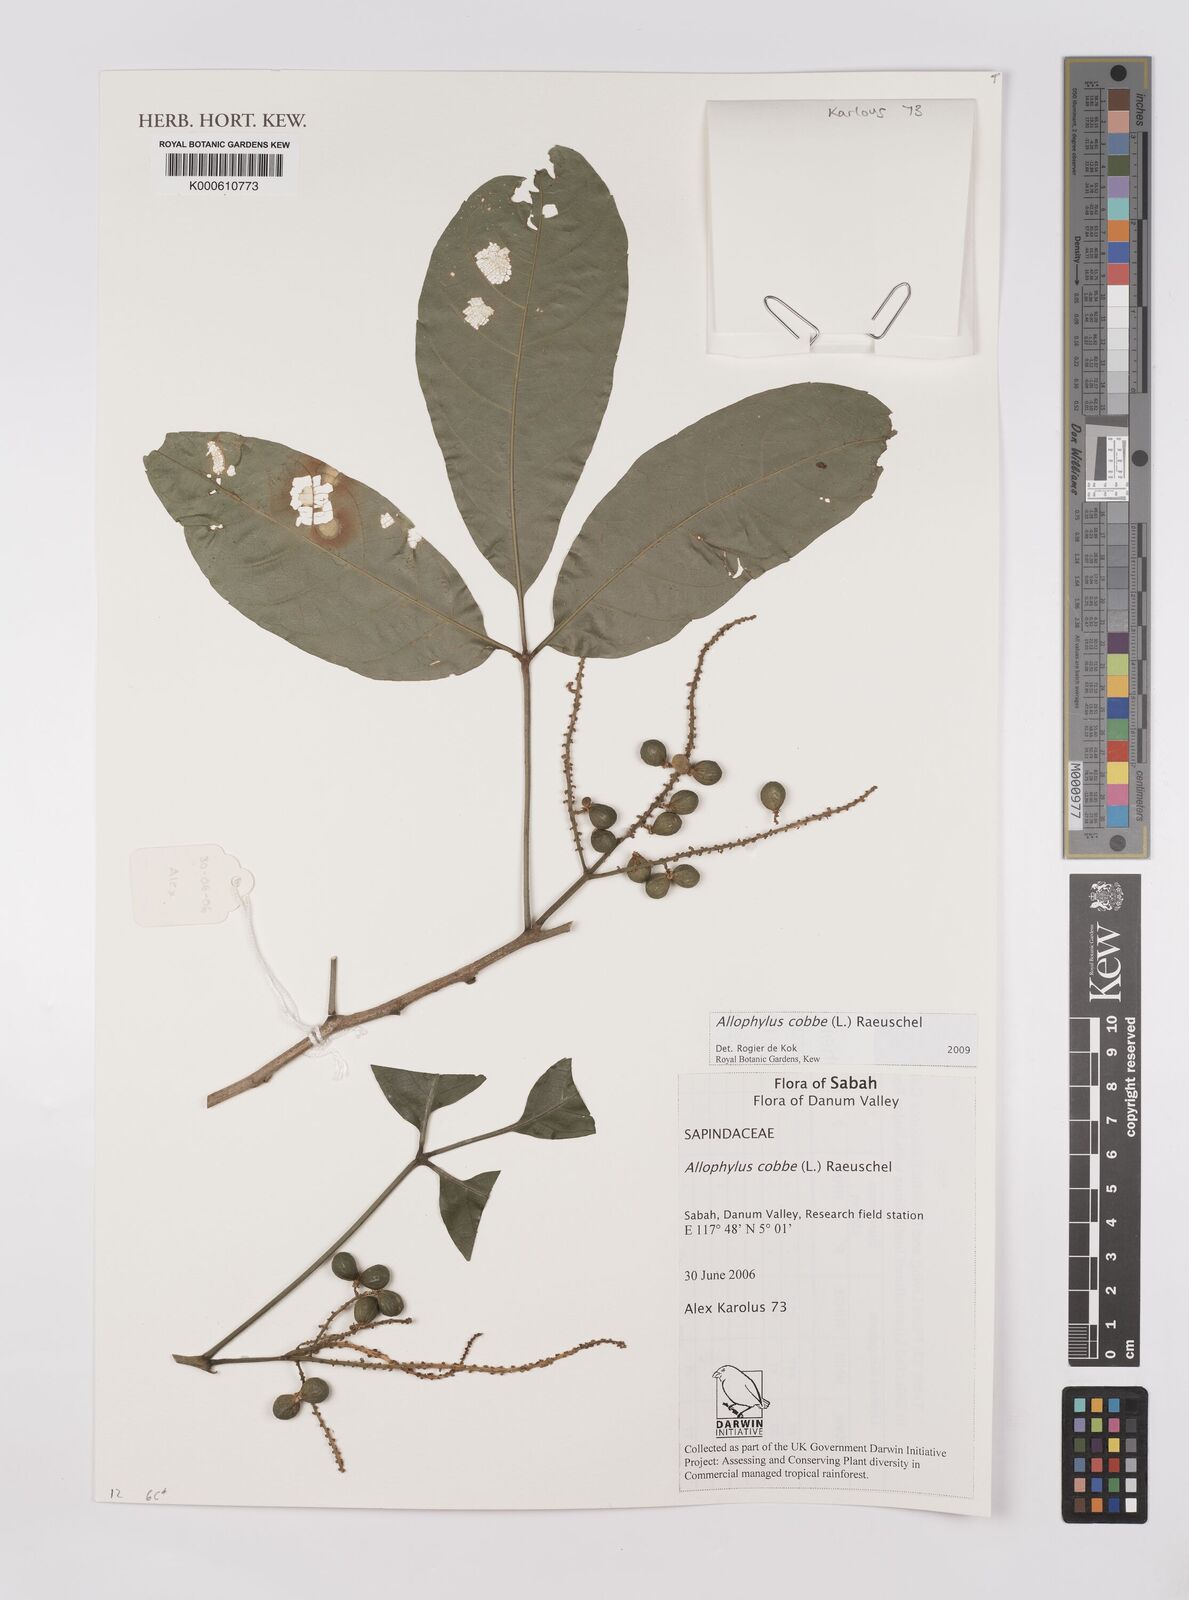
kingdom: Plantae
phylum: Tracheophyta
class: Magnoliopsida
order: Sapindales
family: Sapindaceae
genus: Allophylus
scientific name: Allophylus
